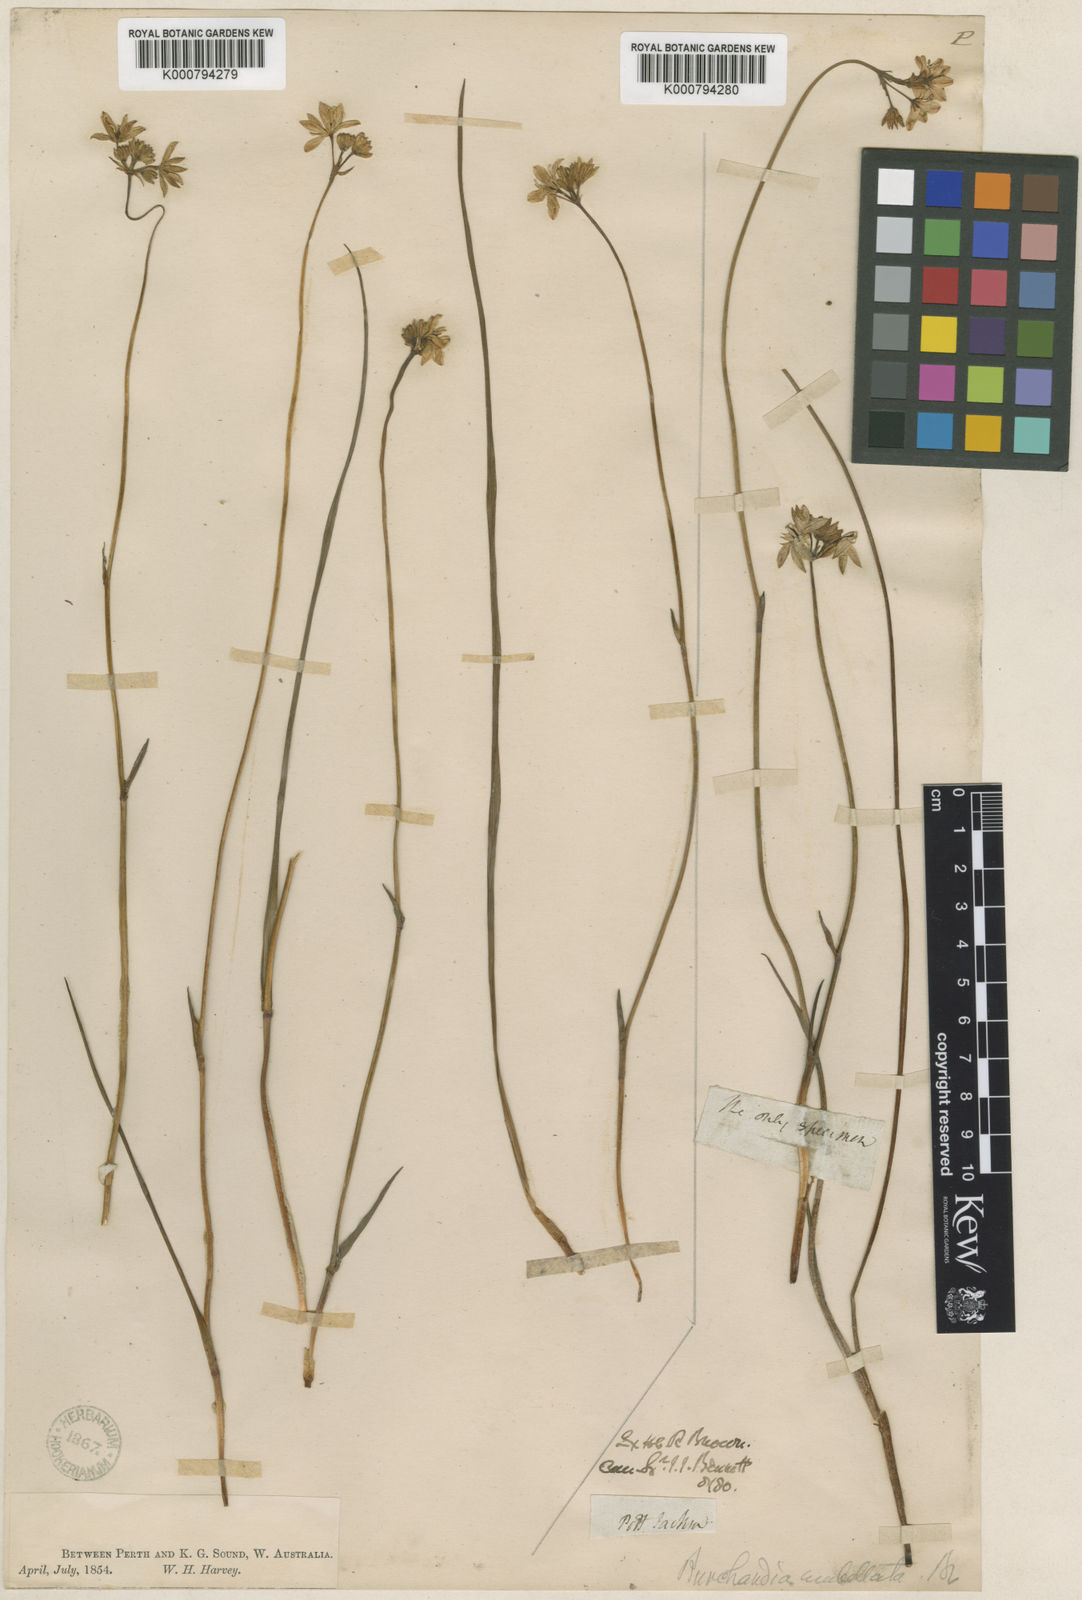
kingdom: Plantae
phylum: Tracheophyta
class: Liliopsida
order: Liliales
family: Colchicaceae
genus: Burchardia
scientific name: Burchardia umbellata
